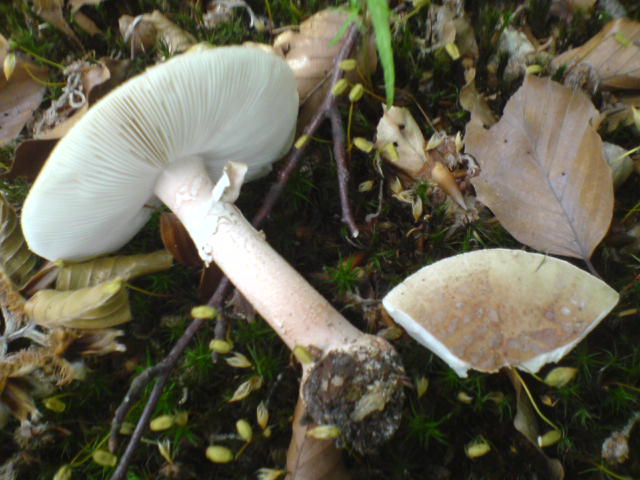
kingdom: Fungi
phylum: Basidiomycota
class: Agaricomycetes
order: Agaricales
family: Amanitaceae
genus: Amanita
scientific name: Amanita rubescens
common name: rødmende fluesvamp
